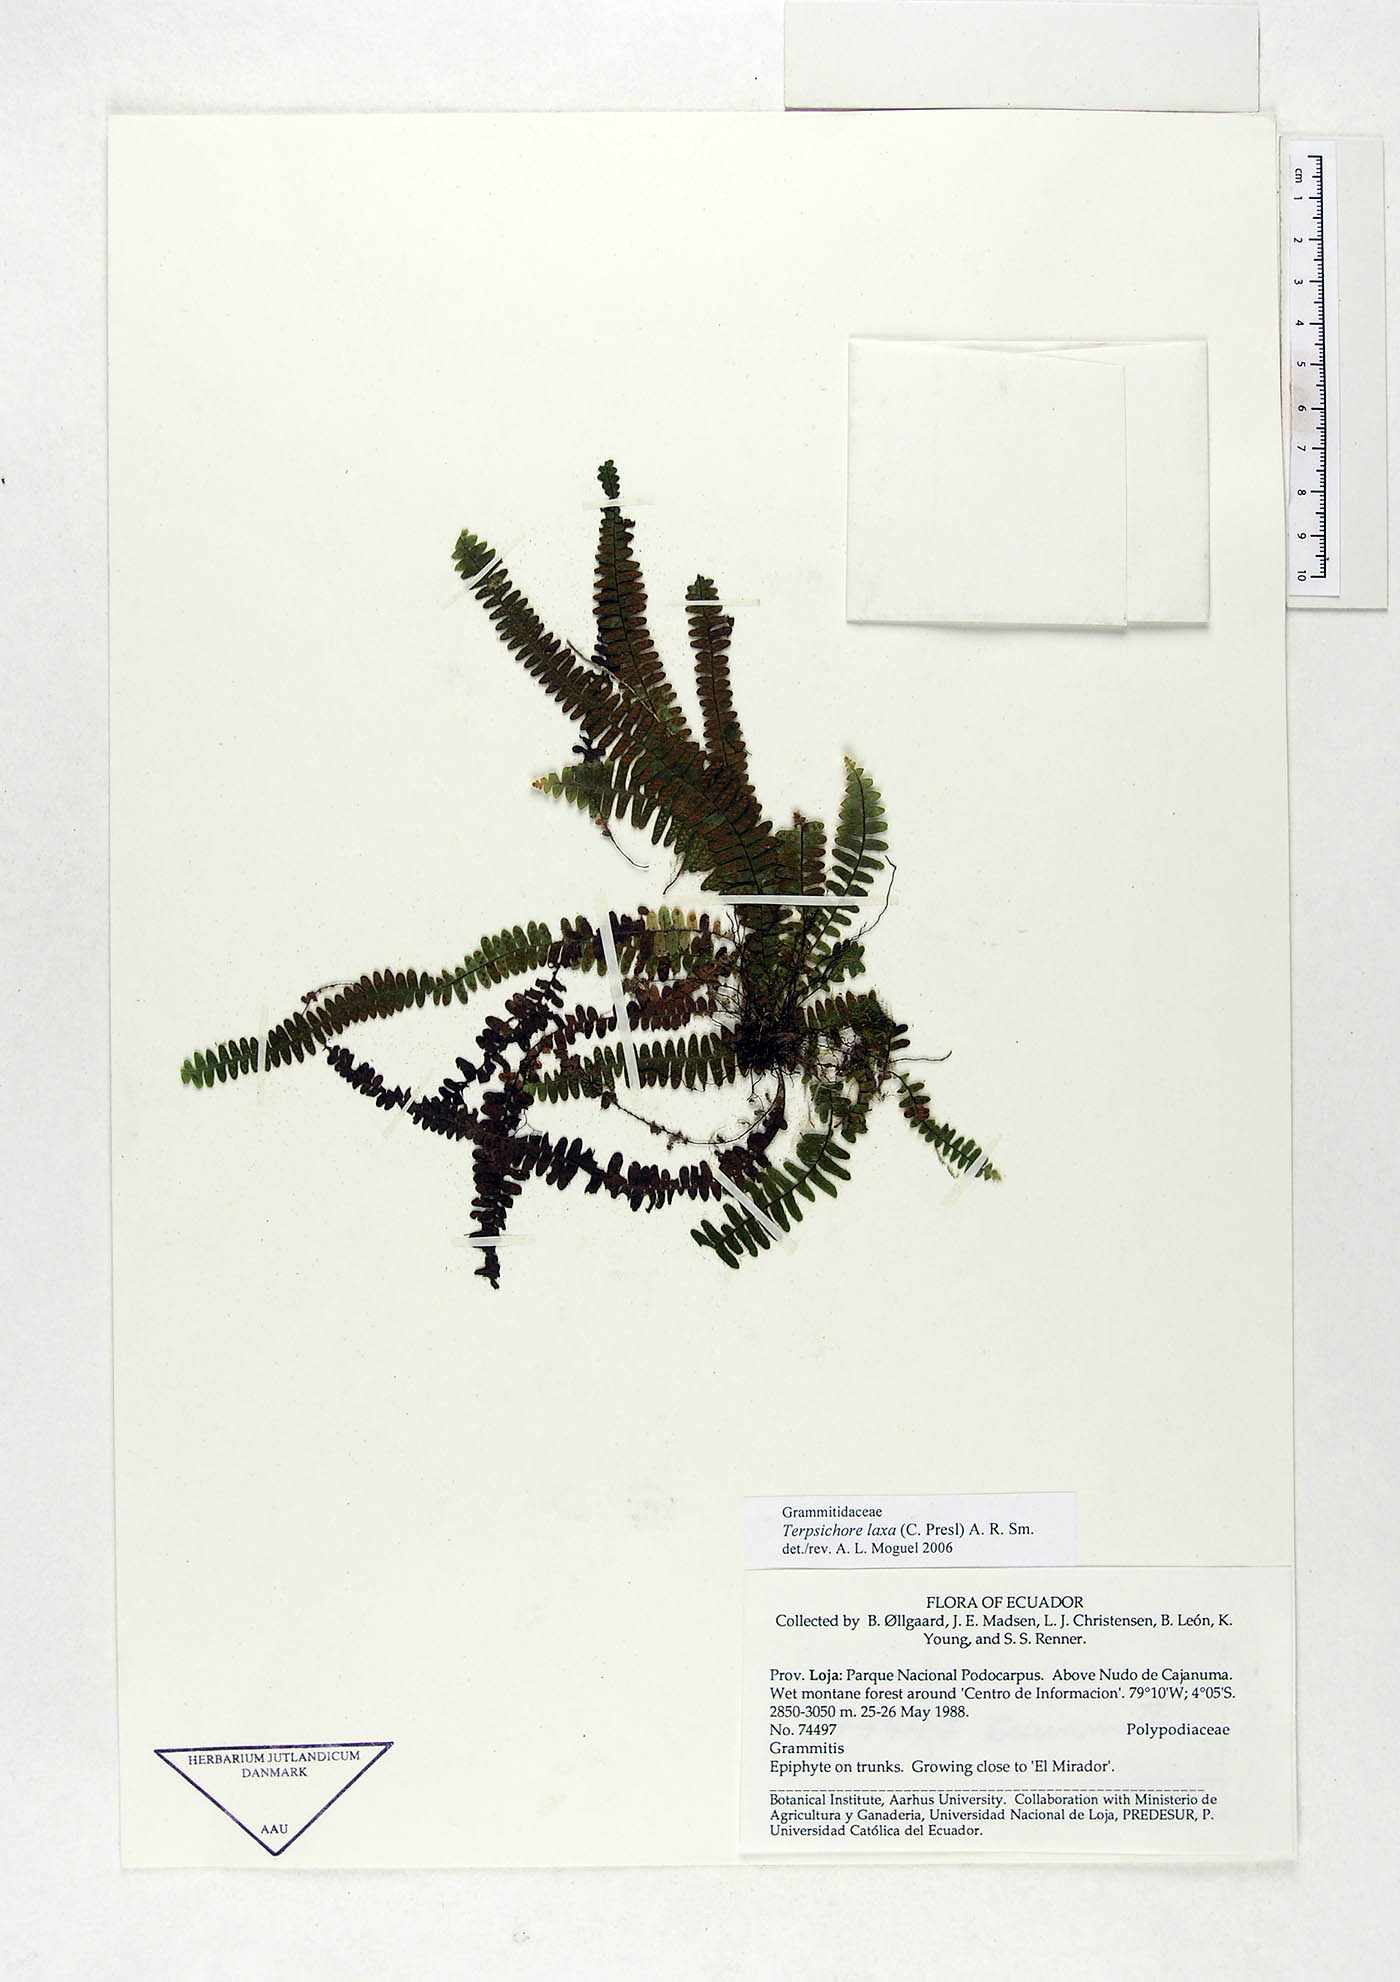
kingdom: Plantae
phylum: Tracheophyta
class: Polypodiopsida
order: Polypodiales
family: Polypodiaceae
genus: Alansmia
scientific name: Alansmia laxa
